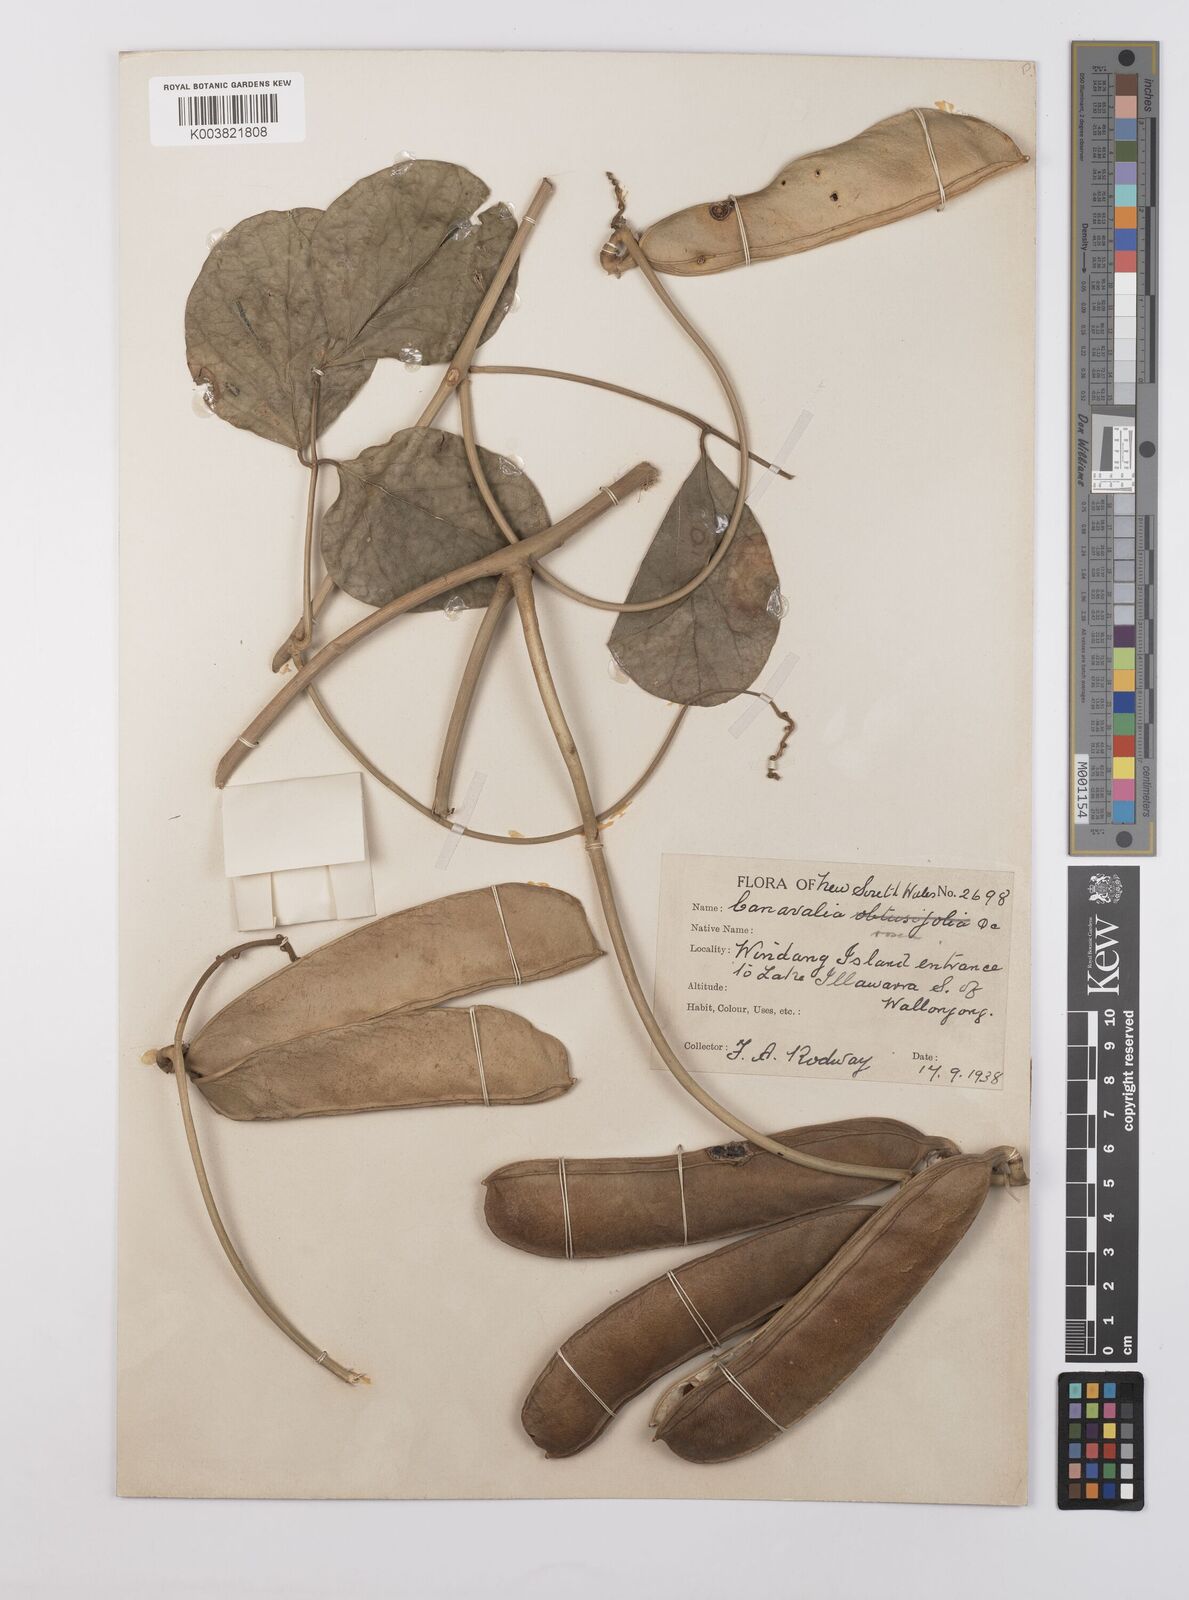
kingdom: Plantae
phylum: Tracheophyta
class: Magnoliopsida
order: Fabales
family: Fabaceae
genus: Canavalia
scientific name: Canavalia rosea
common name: Beach-bean
